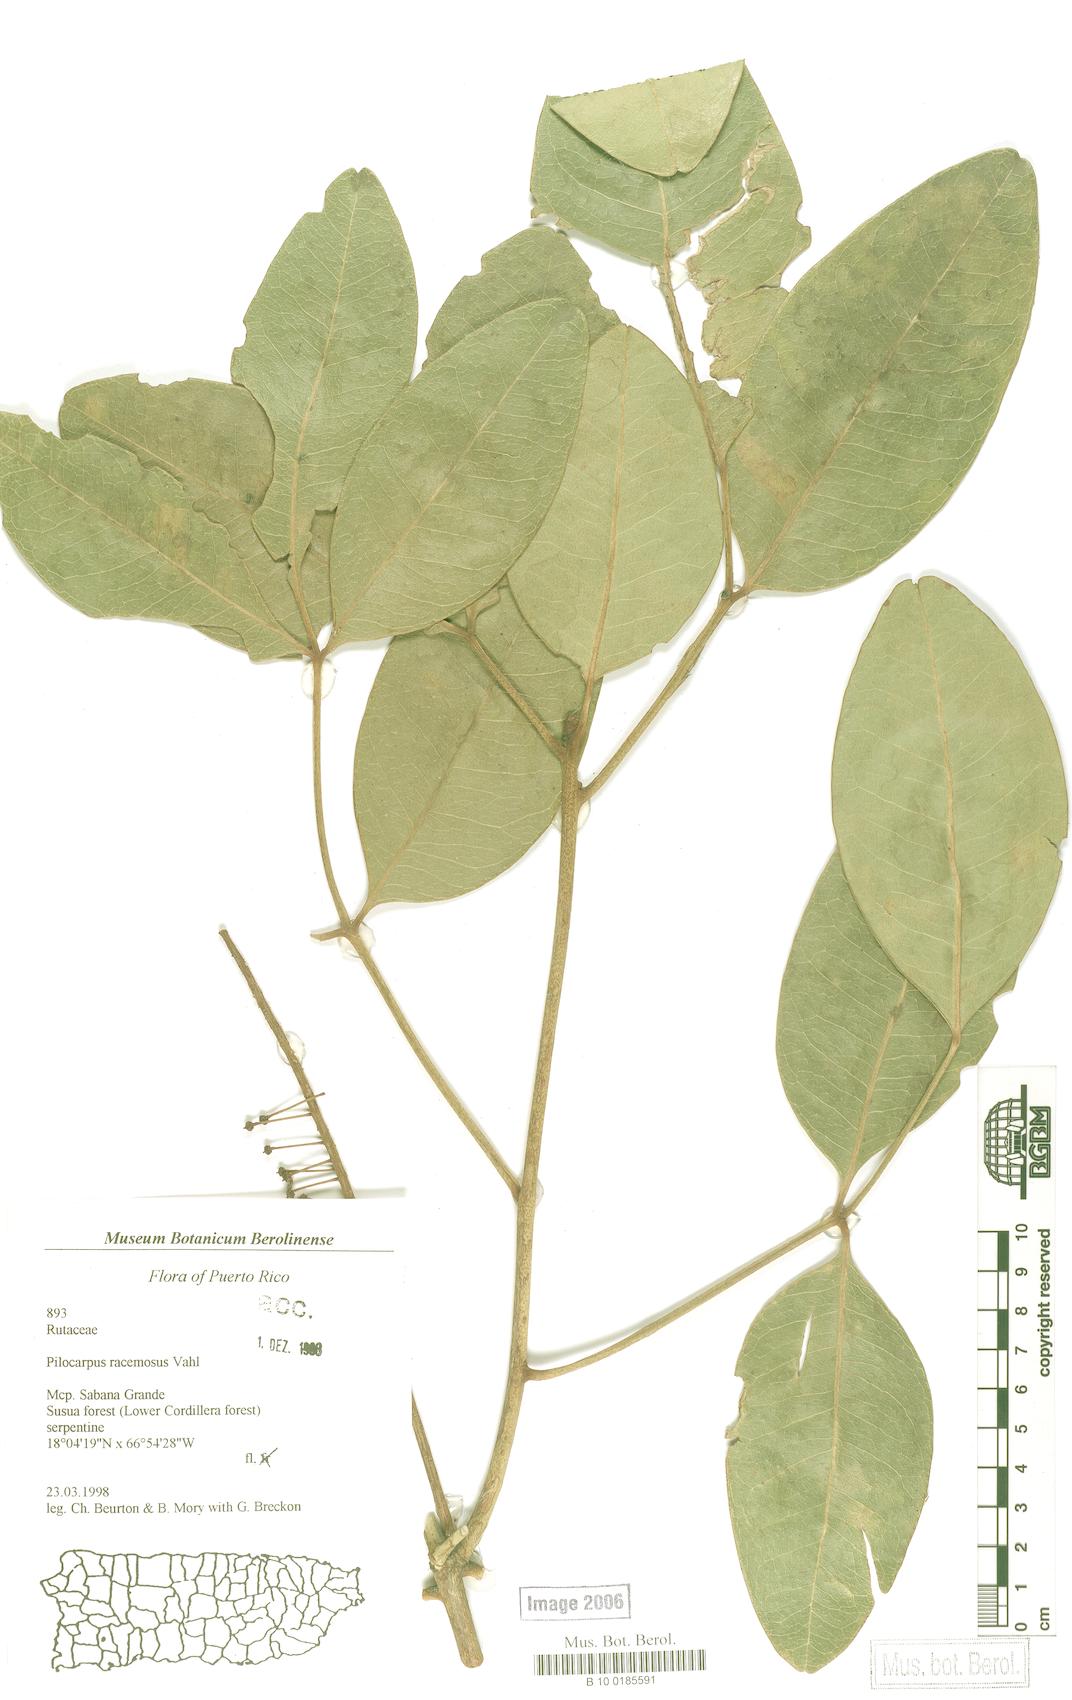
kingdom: Plantae
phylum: Tracheophyta
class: Magnoliopsida
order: Sapindales
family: Rutaceae
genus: Pilocarpus
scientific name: Pilocarpus racemosus
